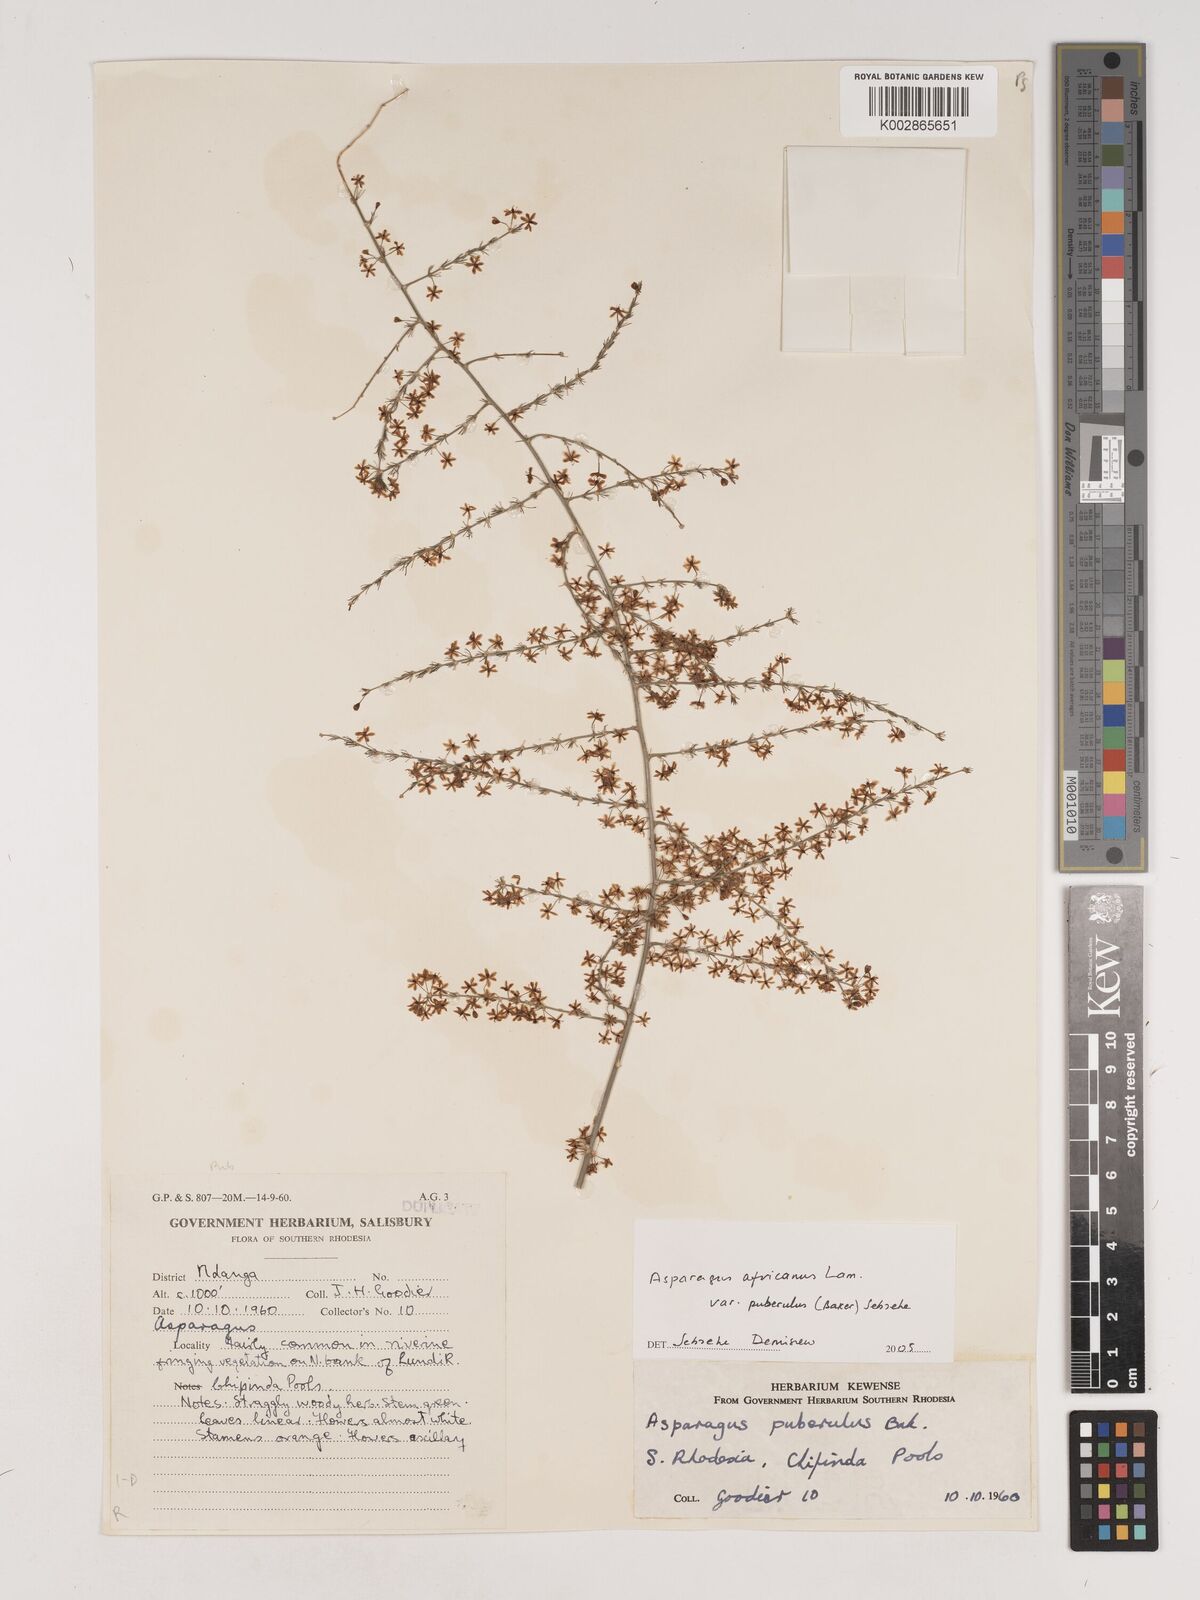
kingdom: Plantae
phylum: Tracheophyta
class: Liliopsida
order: Asparagales
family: Asparagaceae
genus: Asparagus
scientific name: Asparagus africanus
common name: Asparagus-fern
